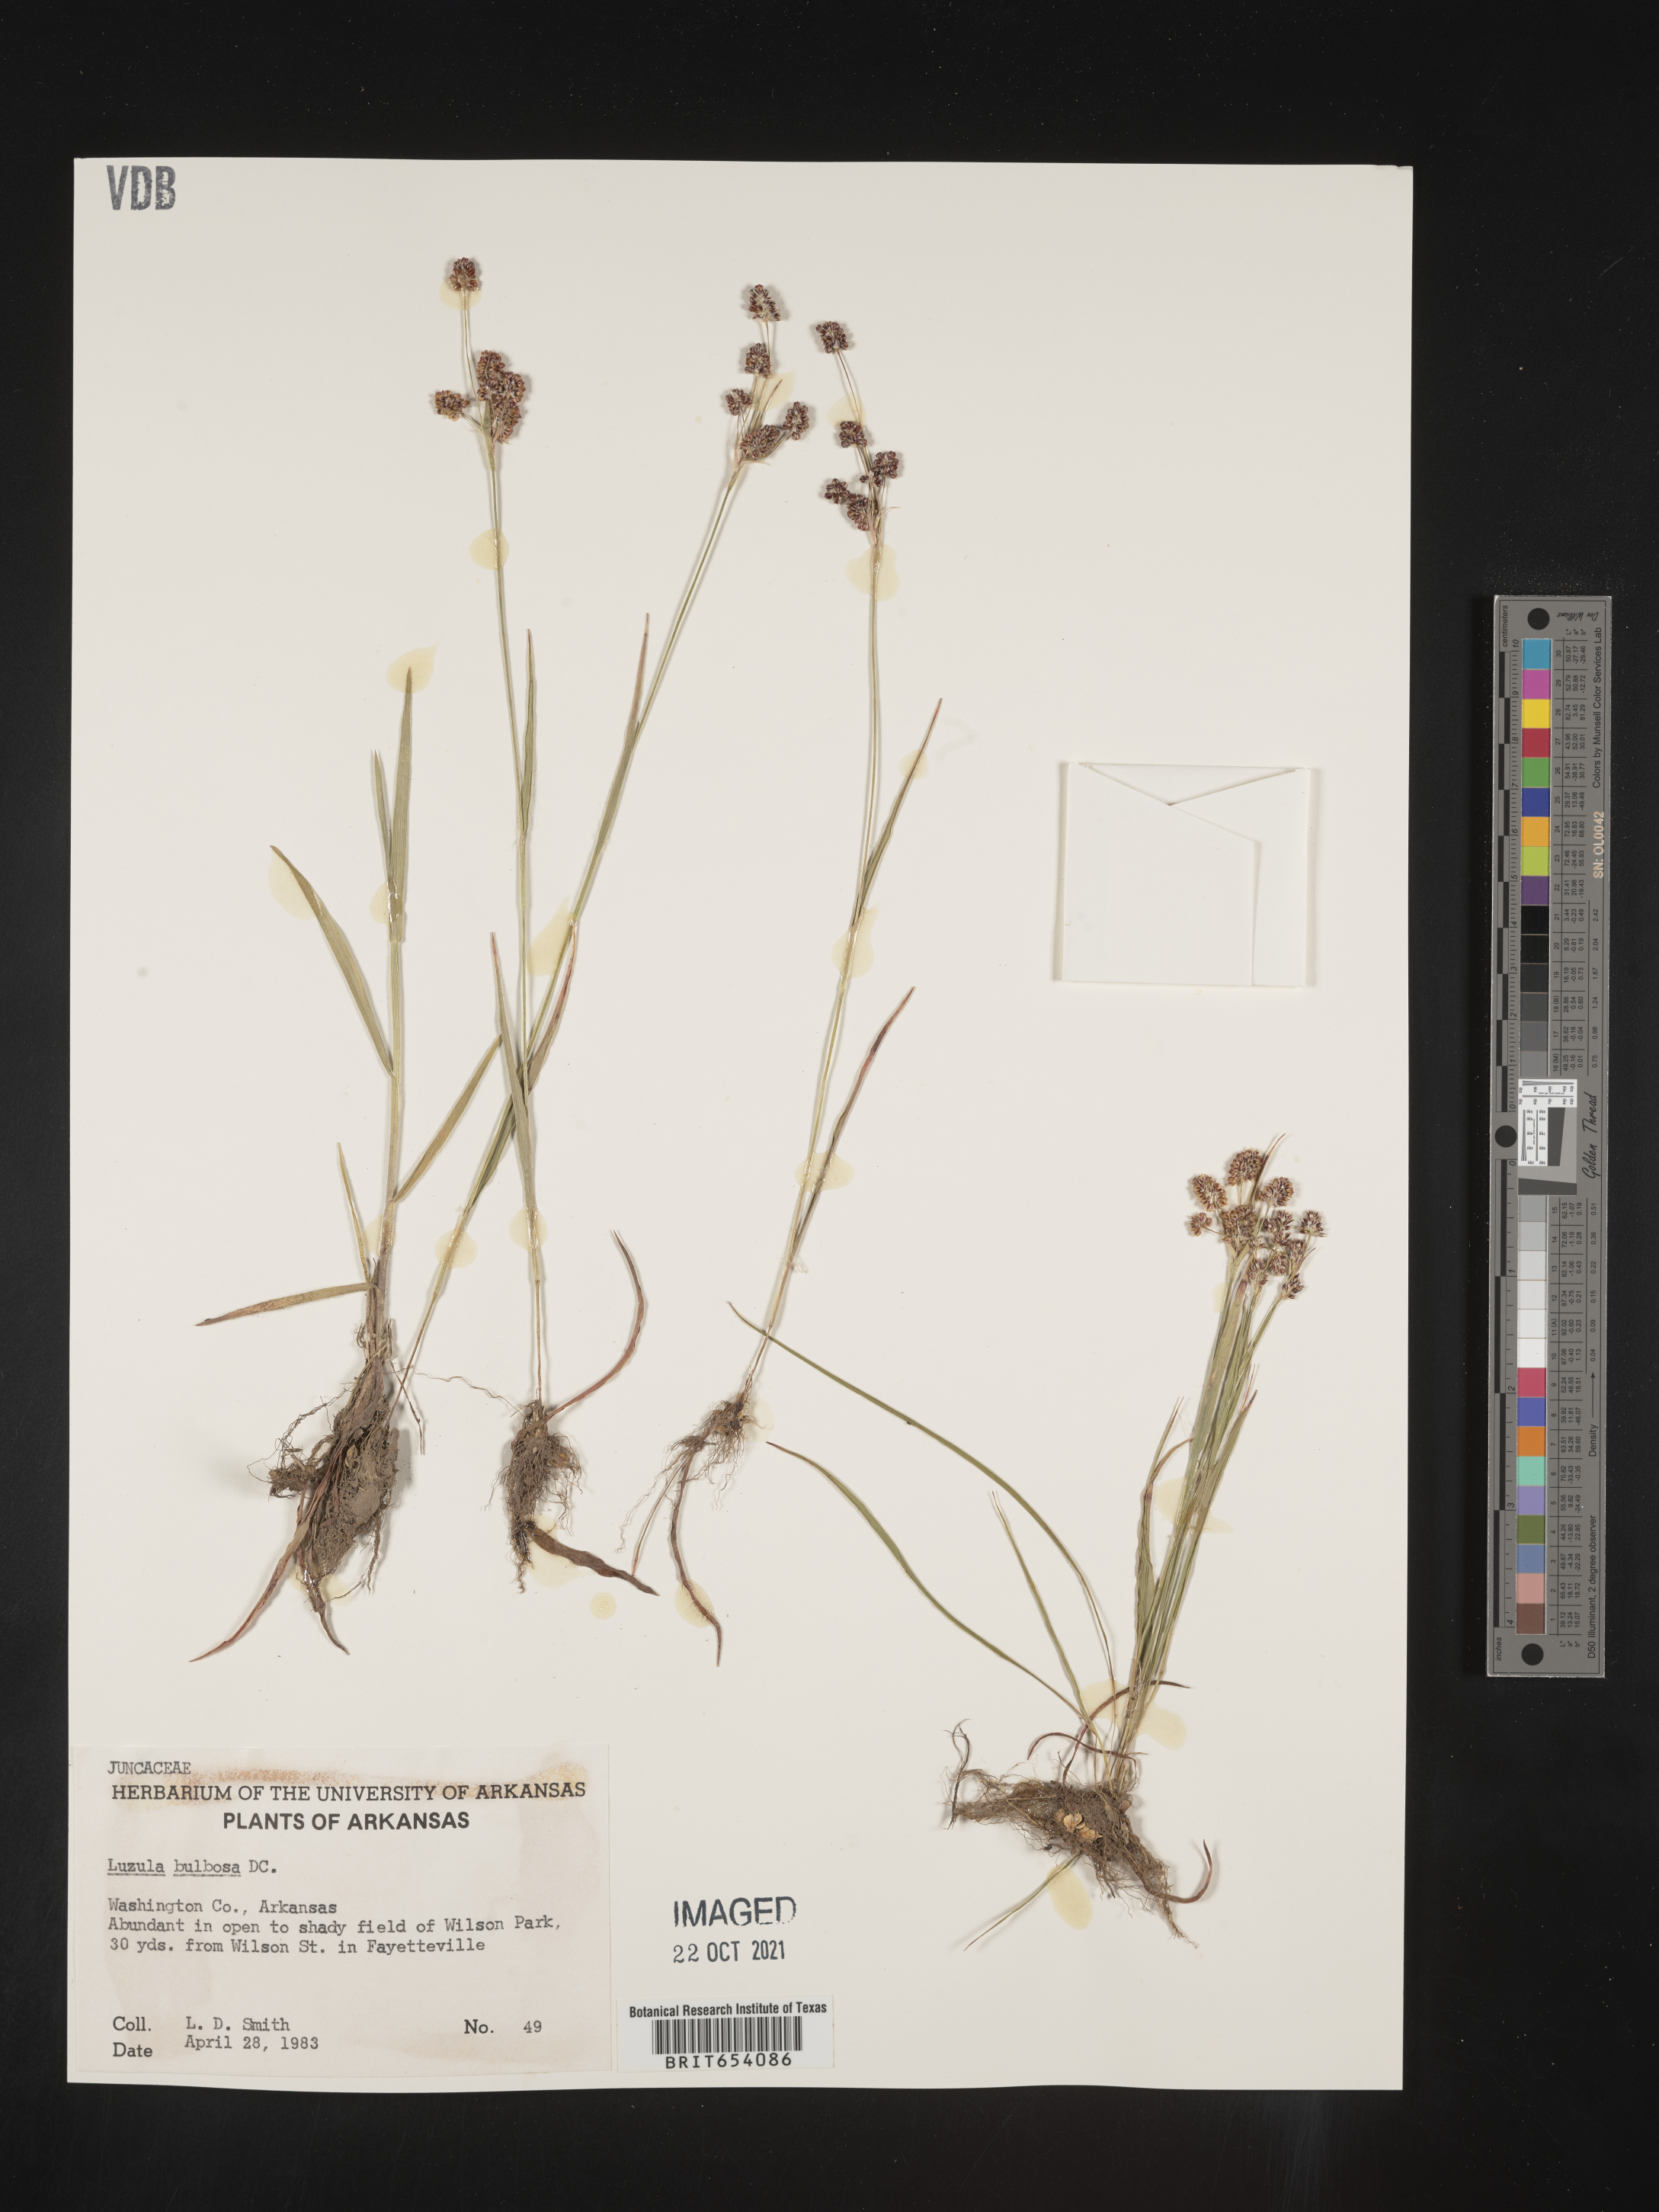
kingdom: Plantae
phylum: Tracheophyta
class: Liliopsida
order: Poales
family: Juncaceae
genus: Luzula
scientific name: Luzula bulbosa
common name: Bulbous woodrush
